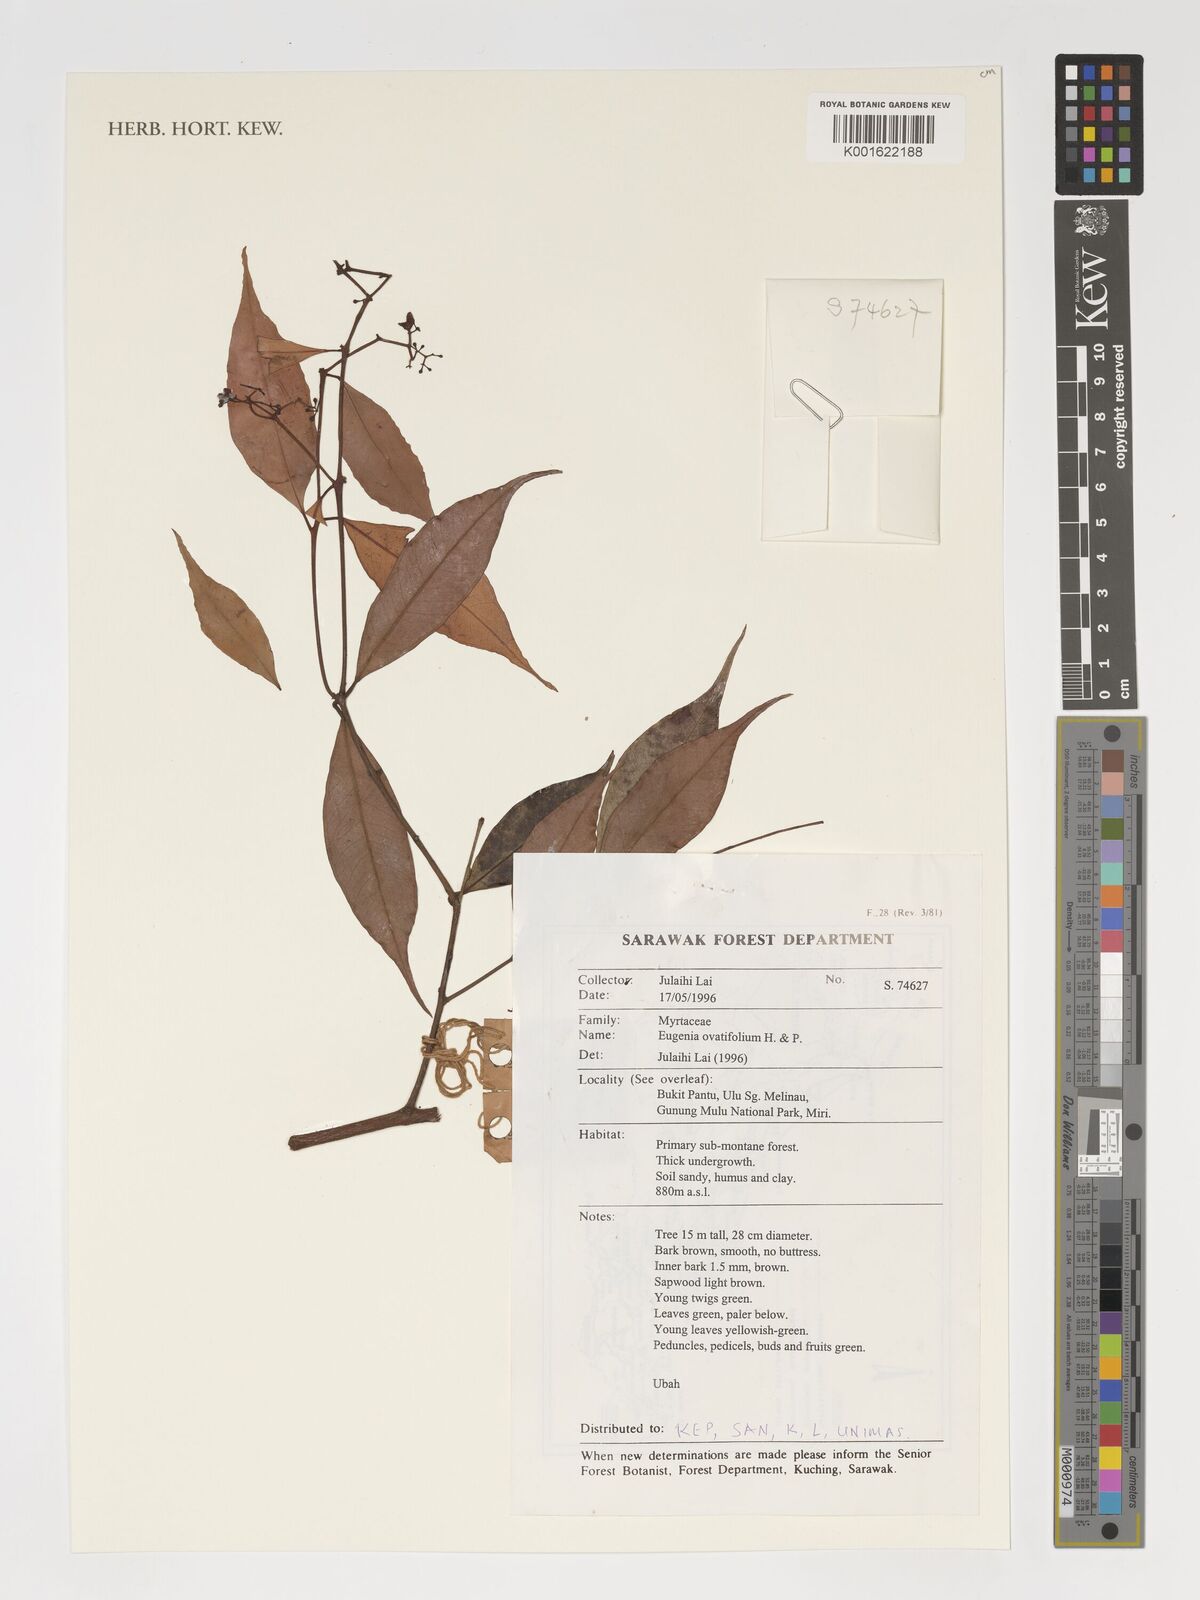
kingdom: Plantae
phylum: Tracheophyta
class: Magnoliopsida
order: Myrtales
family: Myrtaceae
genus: Eugenia
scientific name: Eugenia
